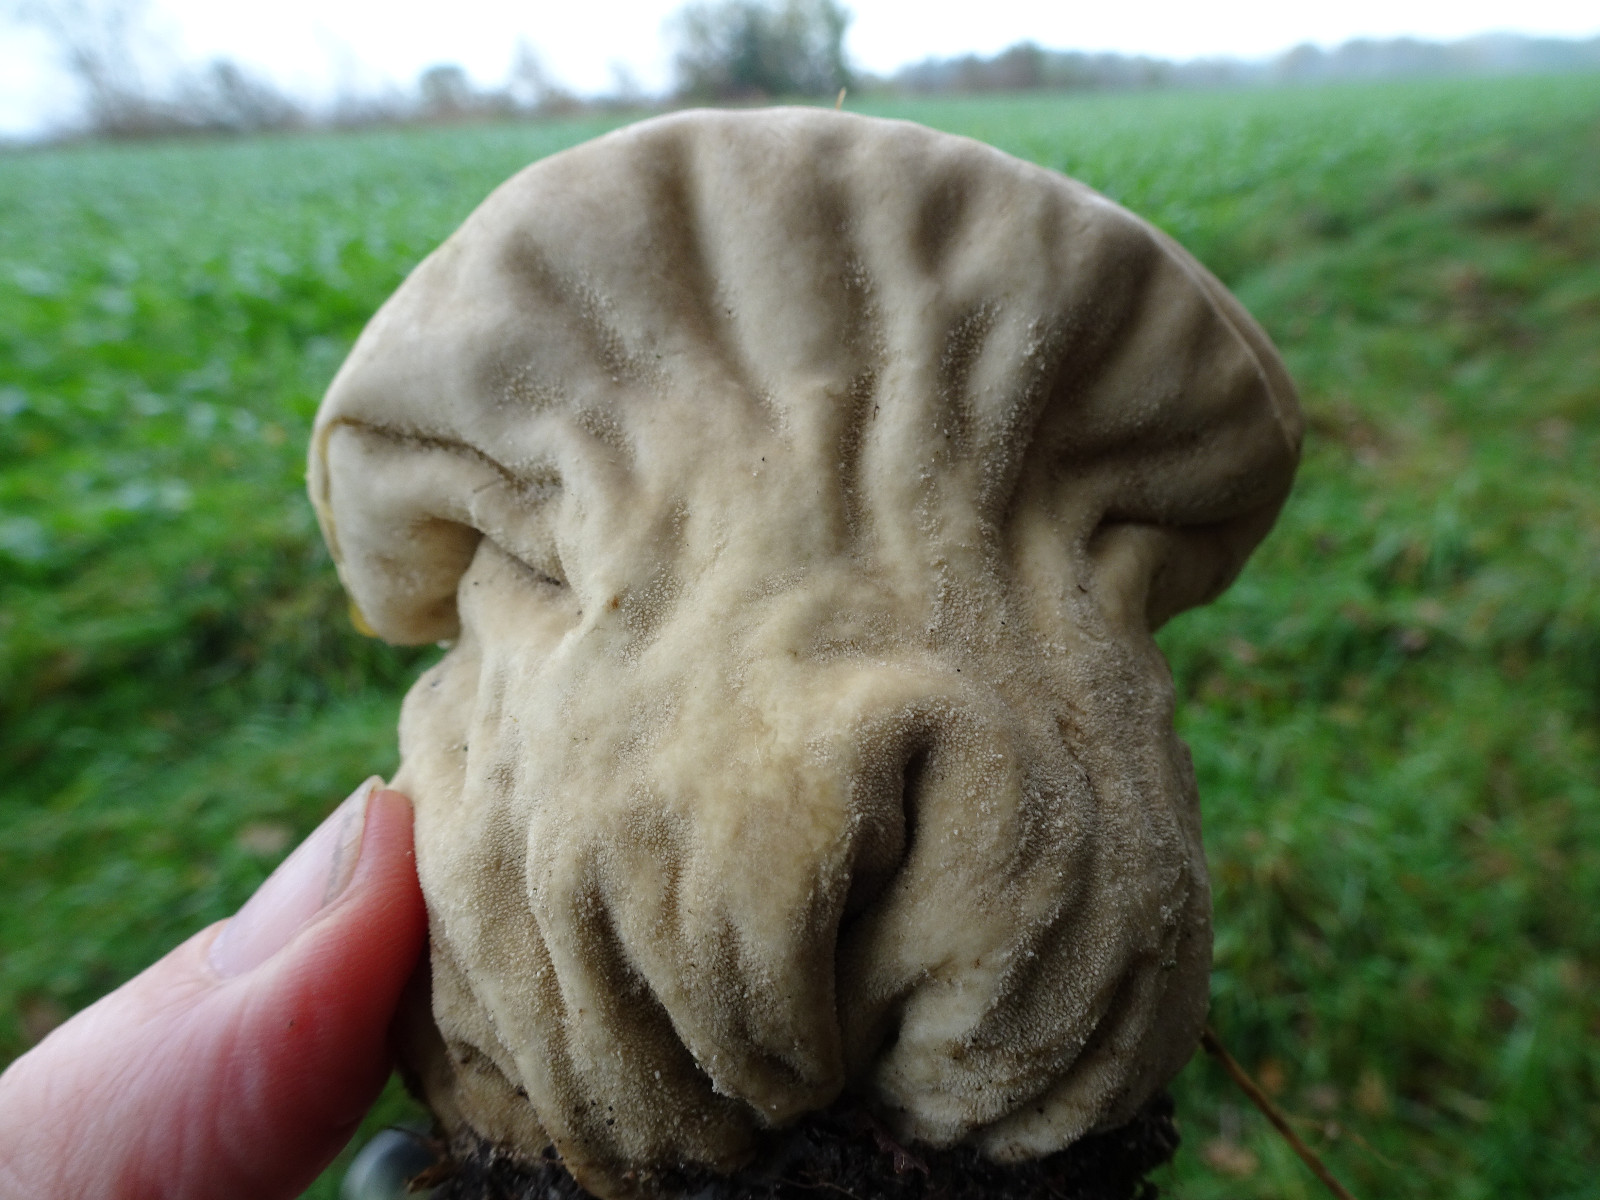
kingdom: Fungi
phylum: Basidiomycota
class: Agaricomycetes
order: Agaricales
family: Lycoperdaceae
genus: Lycoperdon
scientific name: Lycoperdon excipuliforme
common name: højstokket støvbold
